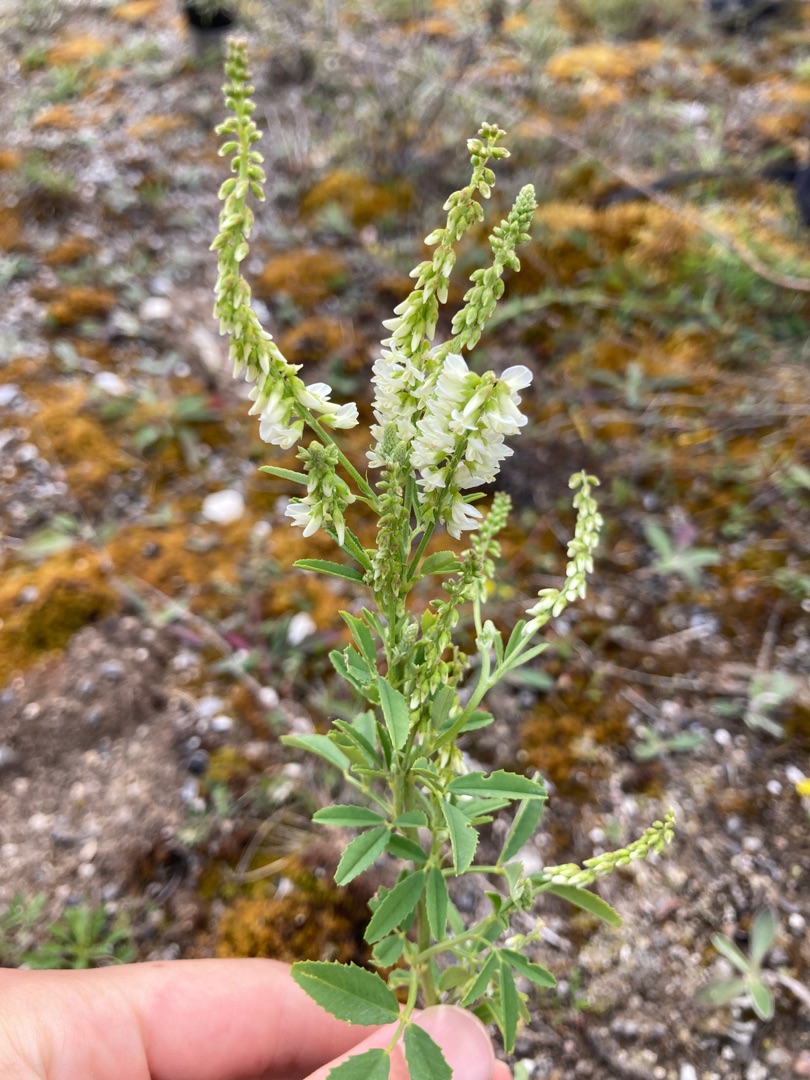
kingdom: Plantae
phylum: Tracheophyta
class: Magnoliopsida
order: Fabales
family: Fabaceae
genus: Melilotus
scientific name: Melilotus albus
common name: Hvid stenkløver
